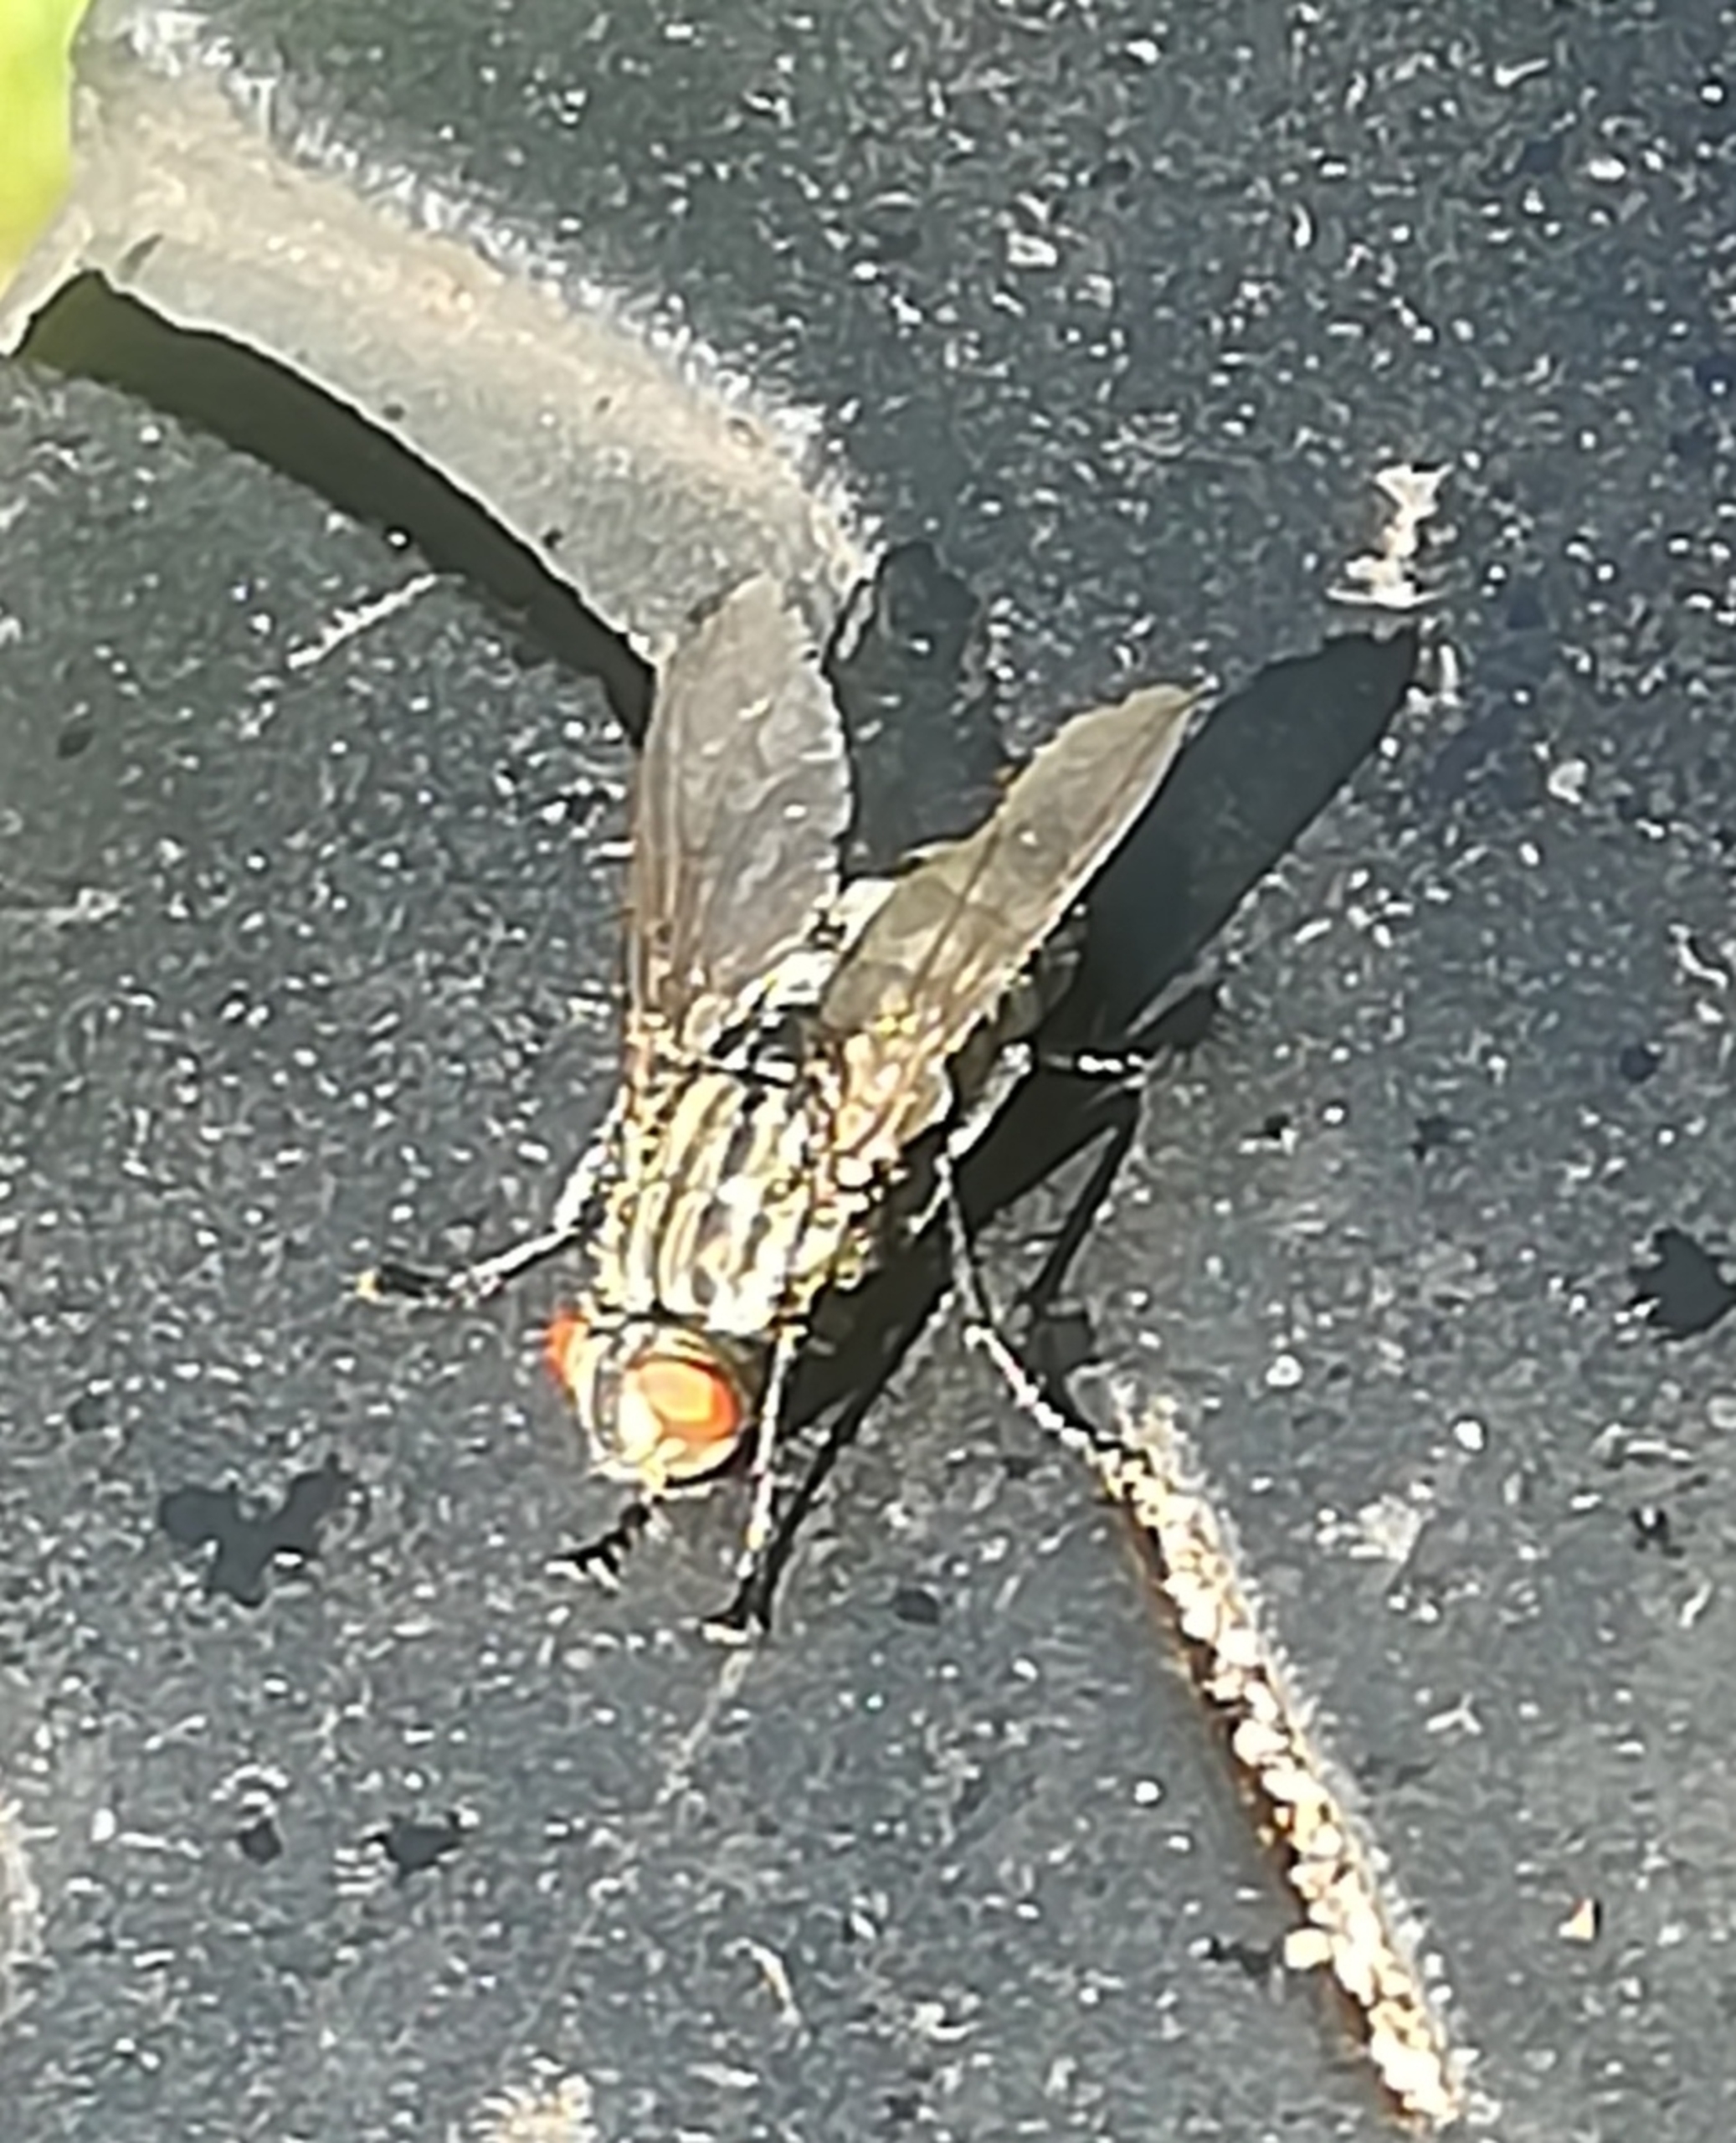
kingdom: Animalia
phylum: Arthropoda
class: Insecta
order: Diptera
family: Sarcophagidae
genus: Sarcophaga
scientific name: Sarcophaga
